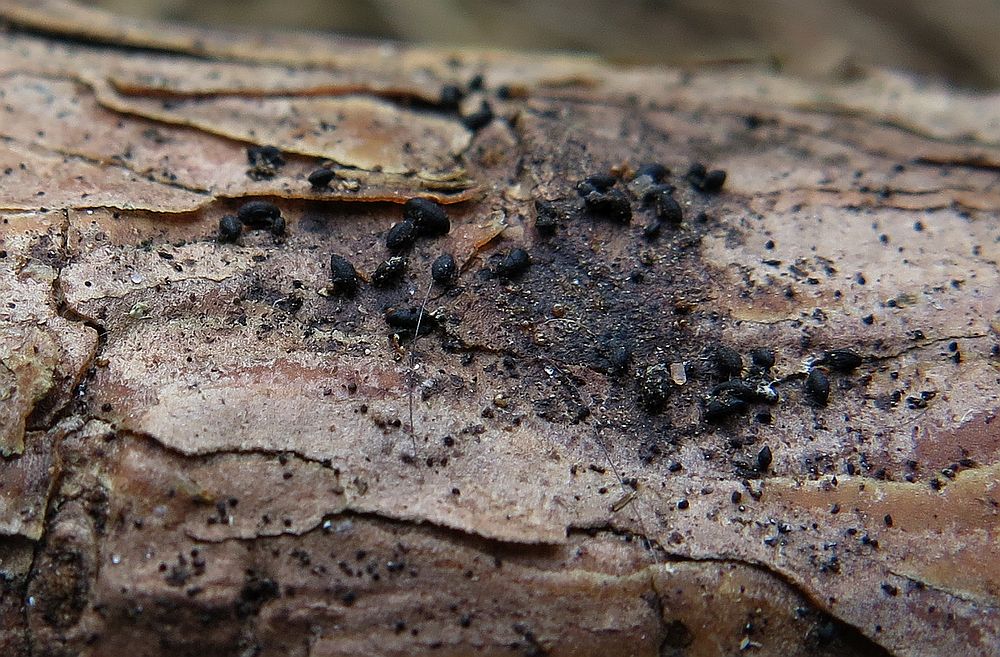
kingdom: Fungi
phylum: Ascomycota
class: Dothideomycetes
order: Mytilinidiales
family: Mytilinidiaceae
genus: Mytilinidion
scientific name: Mytilinidion rhenanum
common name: almindelig kulmusling
